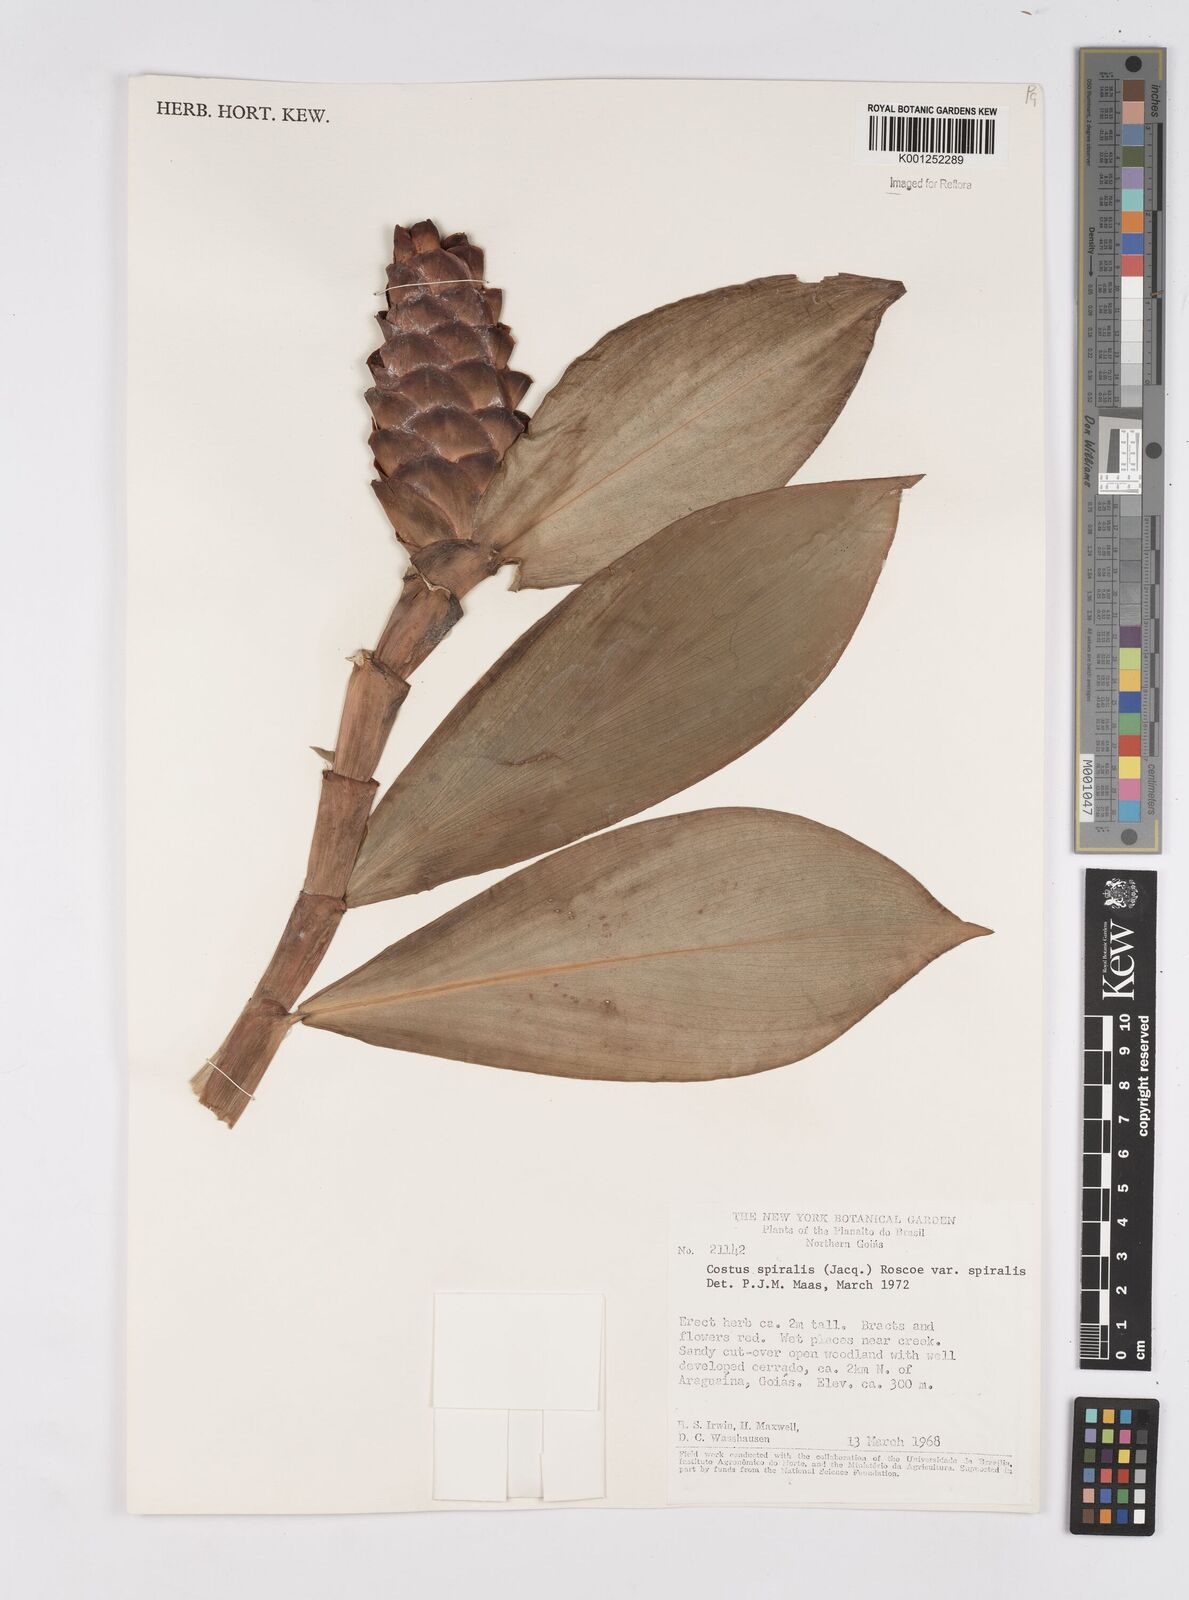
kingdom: Plantae
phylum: Tracheophyta
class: Liliopsida
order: Zingiberales
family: Costaceae
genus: Costus
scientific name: Costus spiralis
